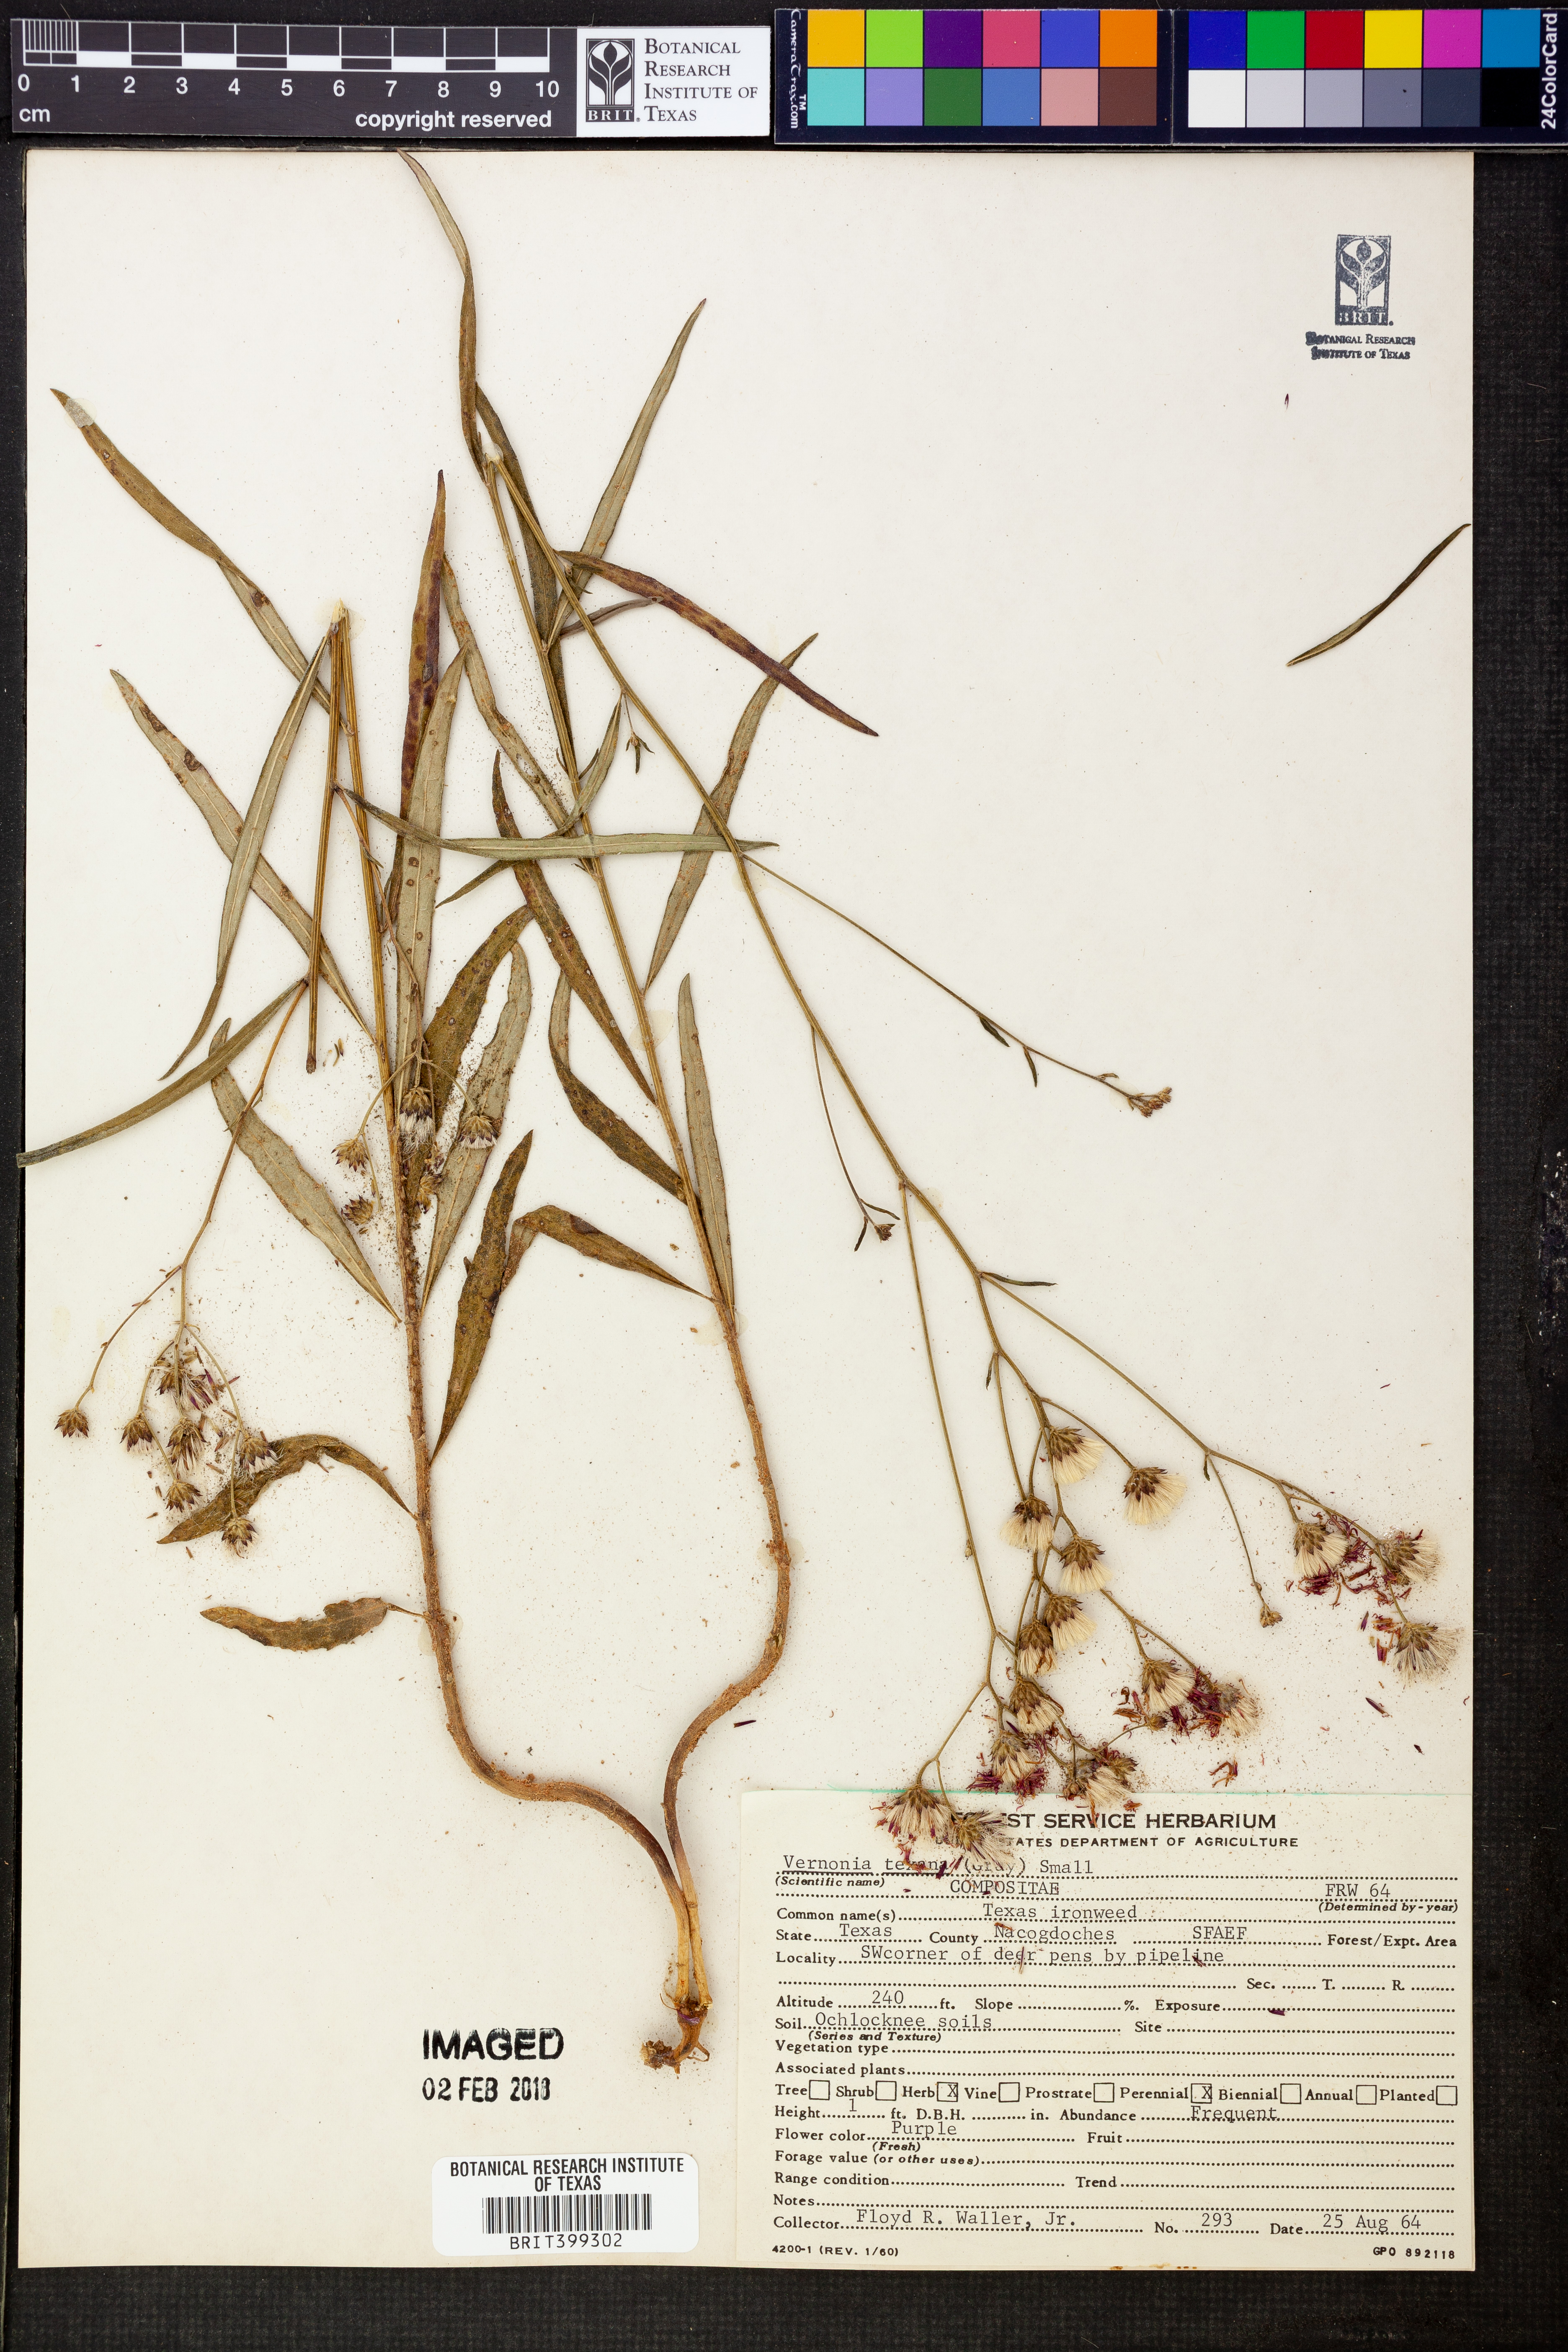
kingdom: Plantae
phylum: Tracheophyta
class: Magnoliopsida
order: Asterales
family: Asteraceae
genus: Vernonia
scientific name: Vernonia texana
